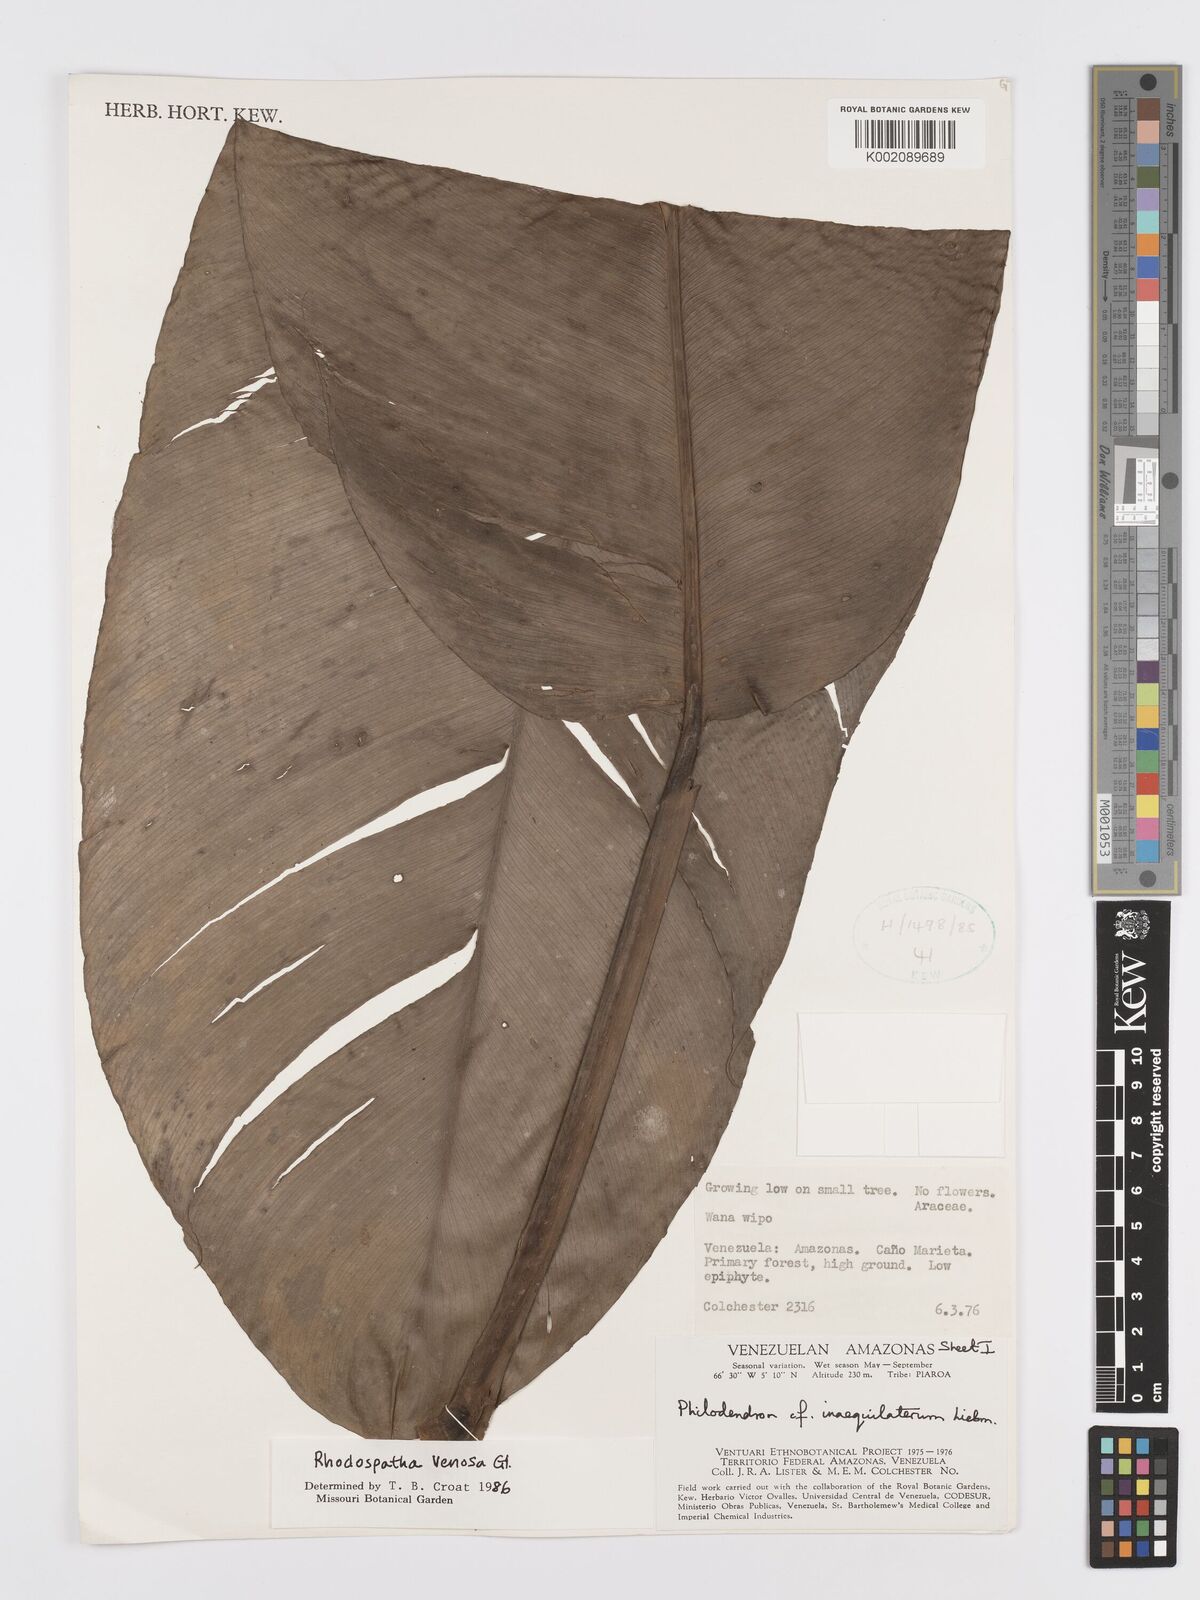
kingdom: Plantae
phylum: Tracheophyta
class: Liliopsida
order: Alismatales
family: Araceae
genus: Rhodospatha
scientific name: Rhodospatha venosa
